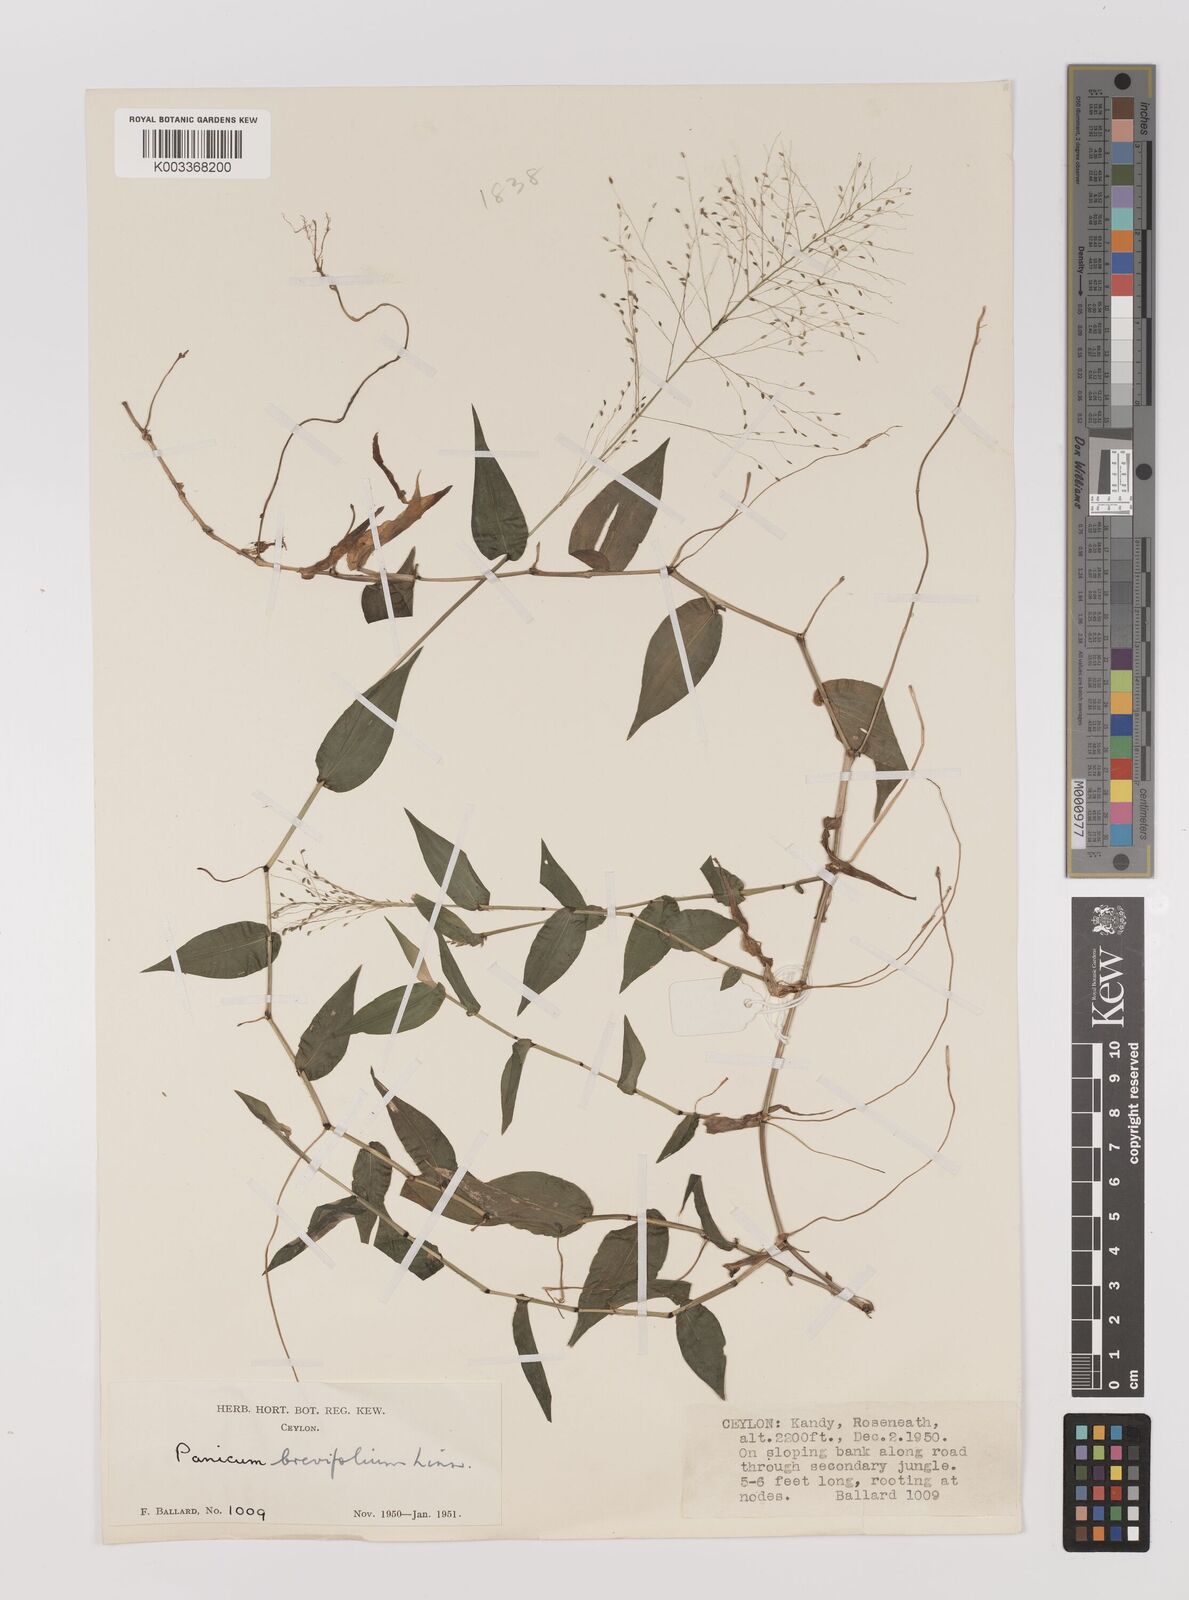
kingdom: Plantae
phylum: Tracheophyta
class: Liliopsida
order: Poales
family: Poaceae
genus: Panicum
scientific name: Panicum brevifolium
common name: Shortleaf panic grass
